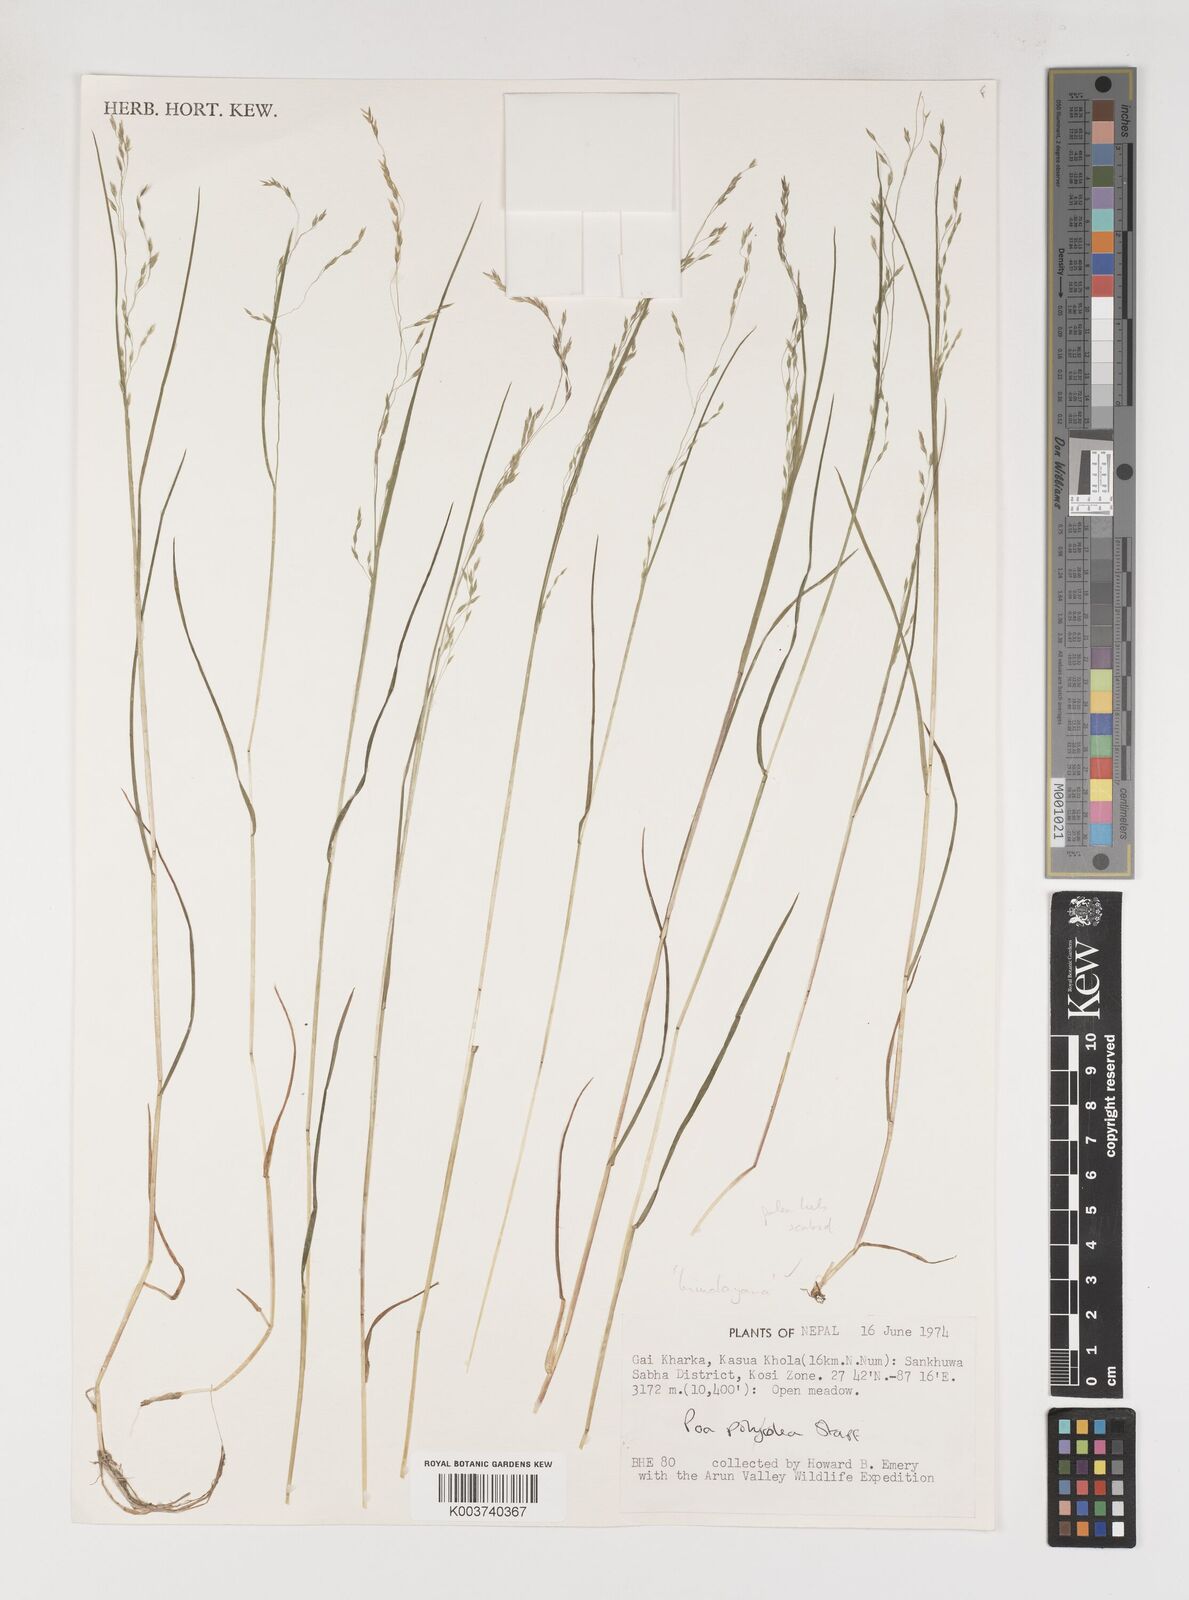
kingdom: Plantae
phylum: Tracheophyta
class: Liliopsida
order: Poales
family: Poaceae
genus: Poa
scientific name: Poa himalayana
